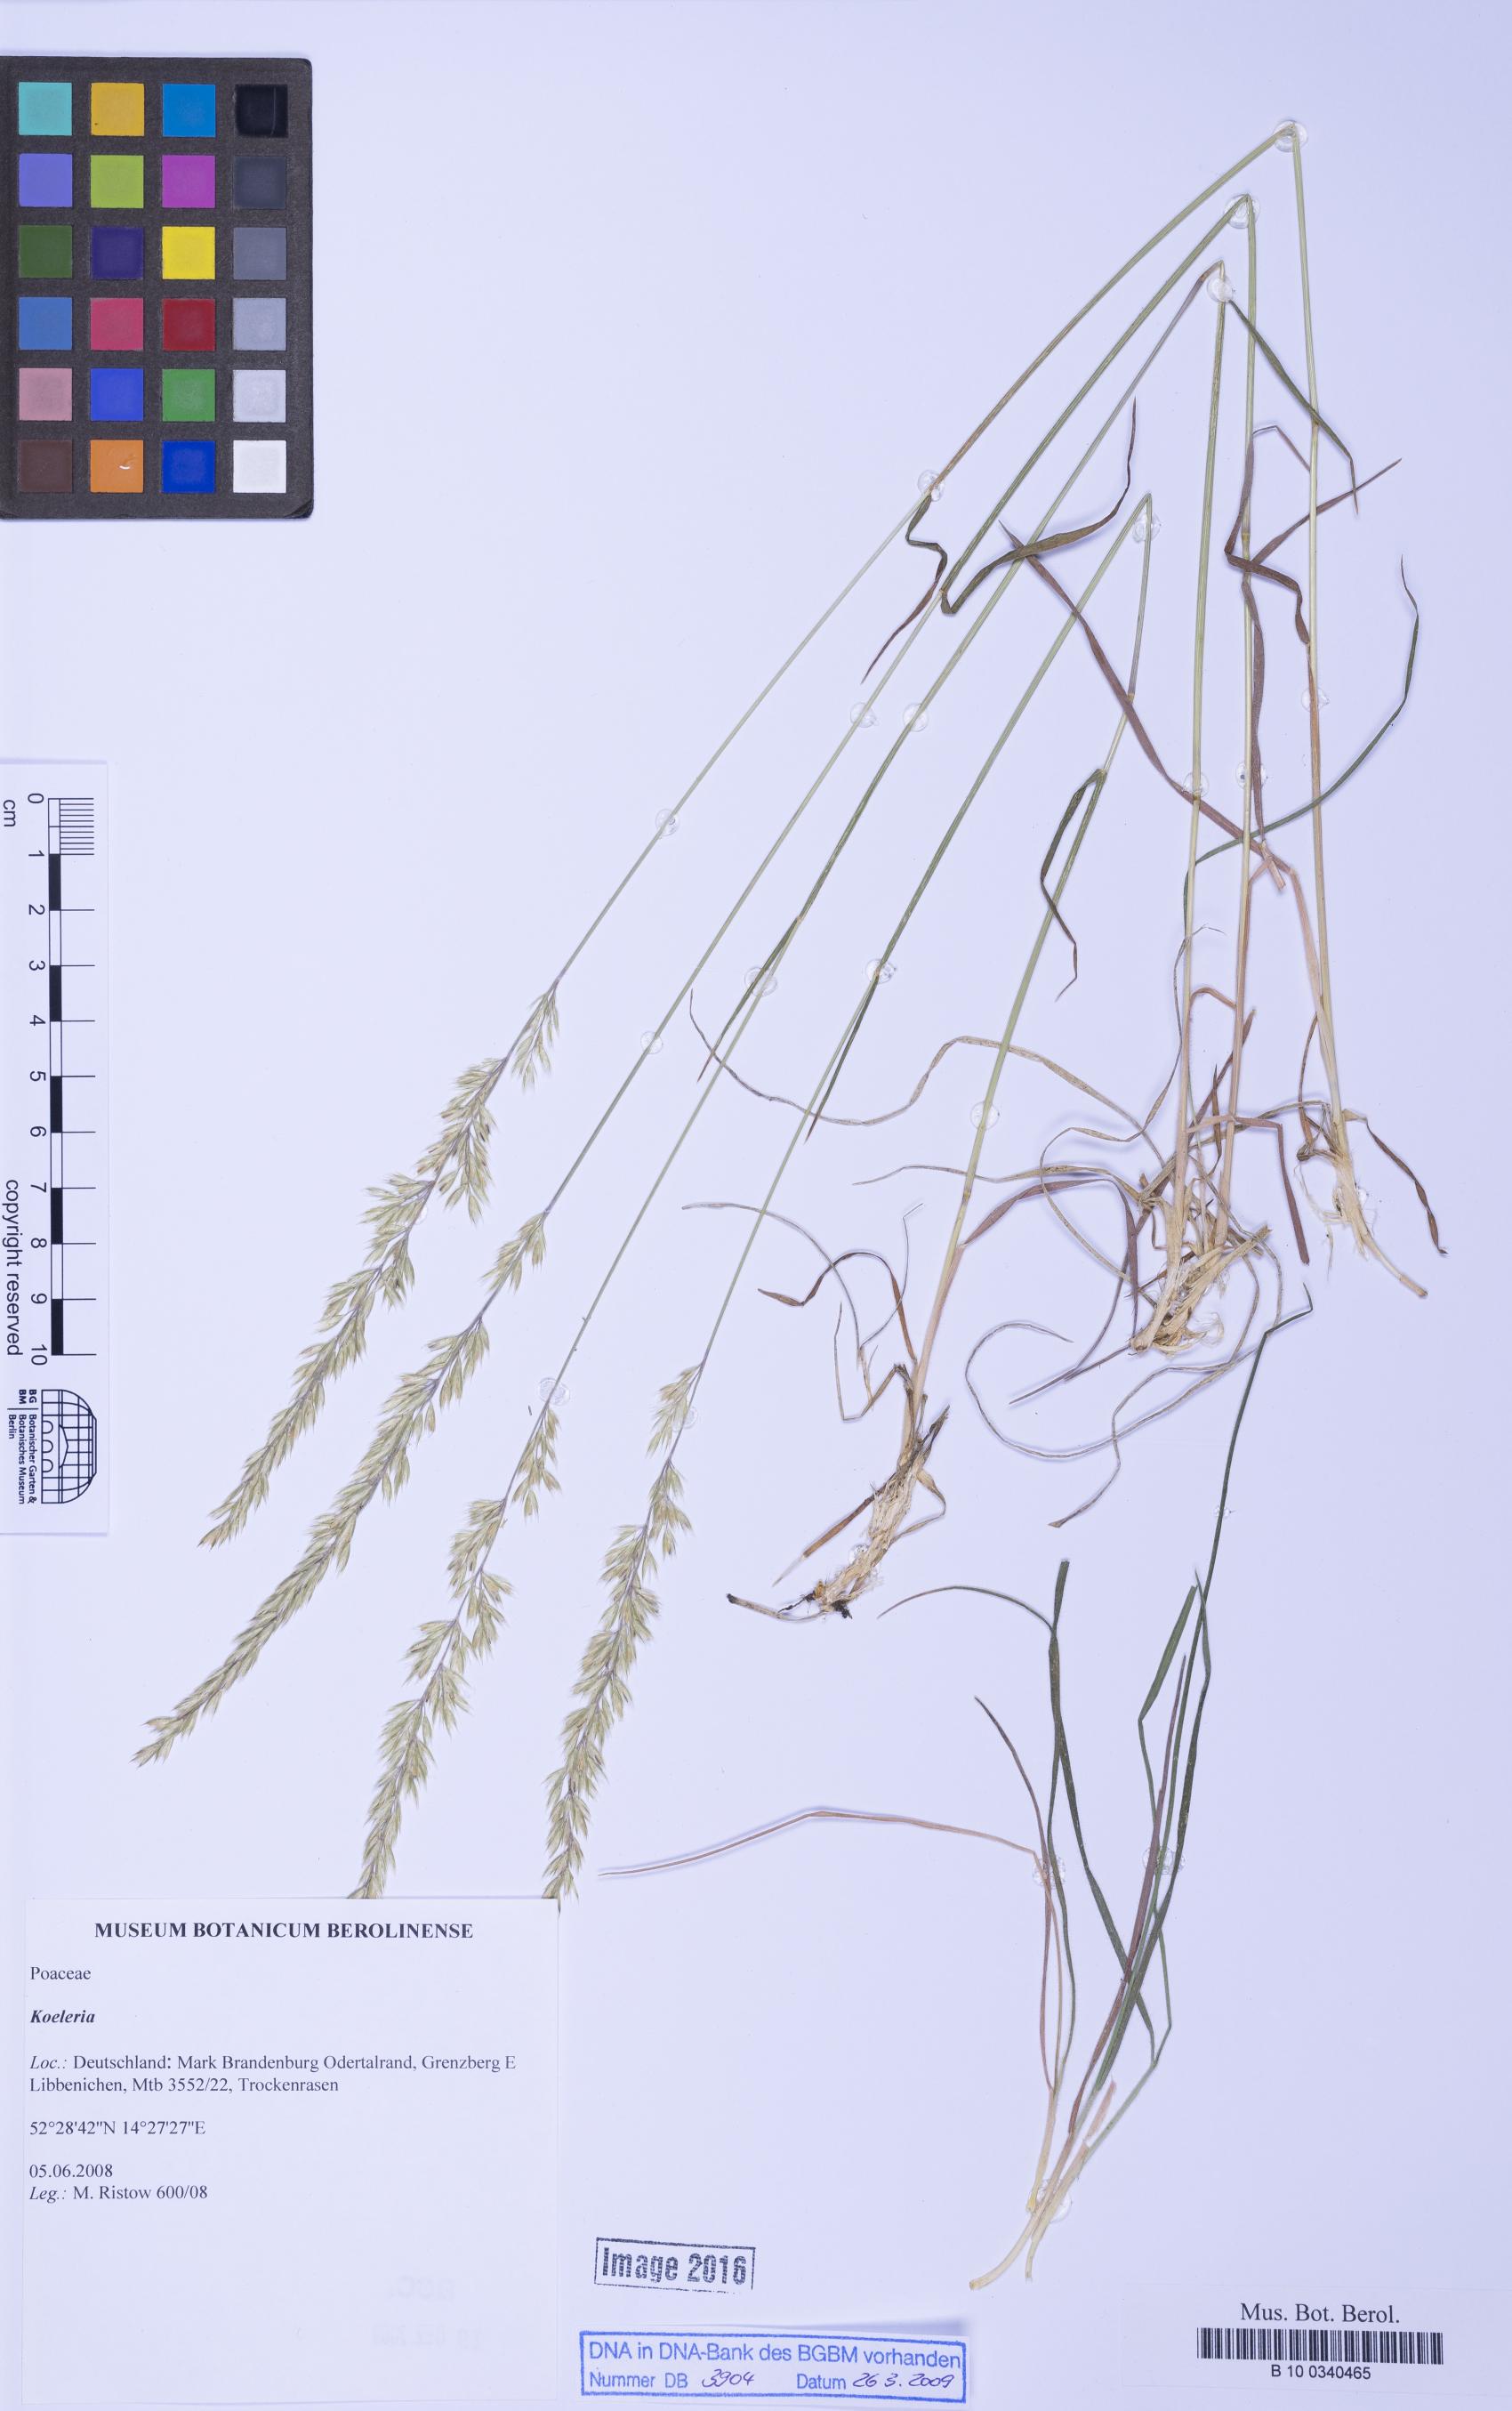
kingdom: Plantae
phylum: Tracheophyta
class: Liliopsida
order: Poales
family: Poaceae
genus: Koeleria
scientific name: Koeleria
